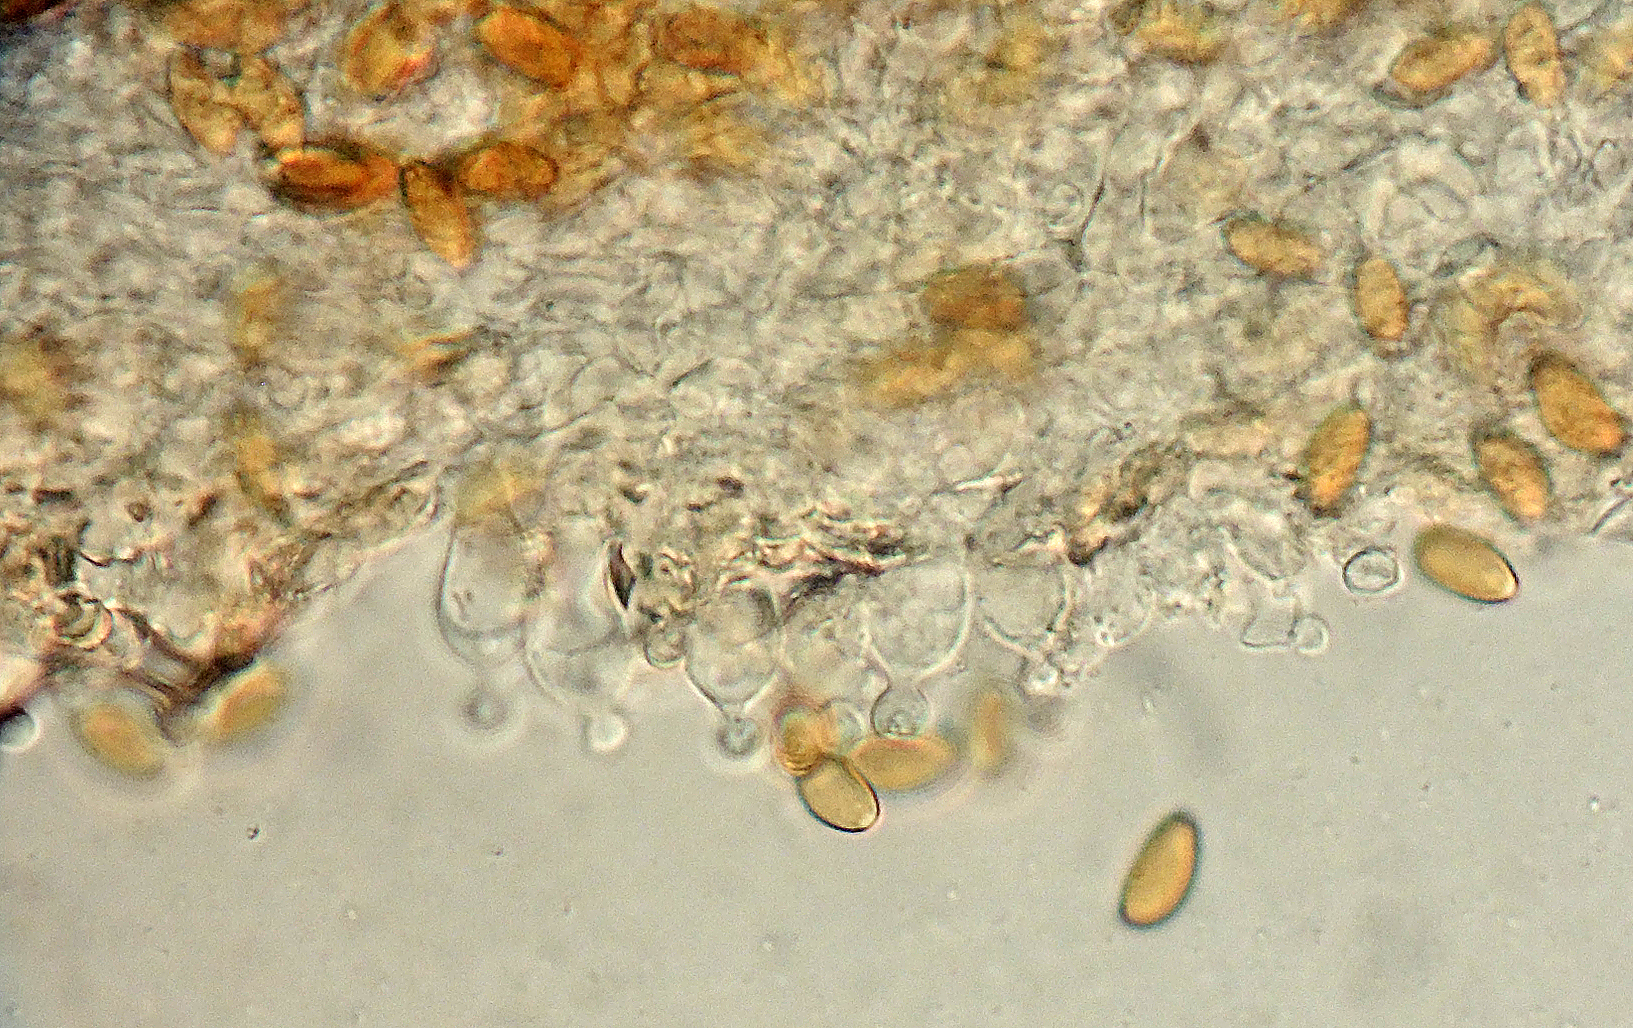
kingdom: Fungi
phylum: Basidiomycota
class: Agaricomycetes
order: Agaricales
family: Bolbitiaceae
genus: Conocybe
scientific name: Conocybe
